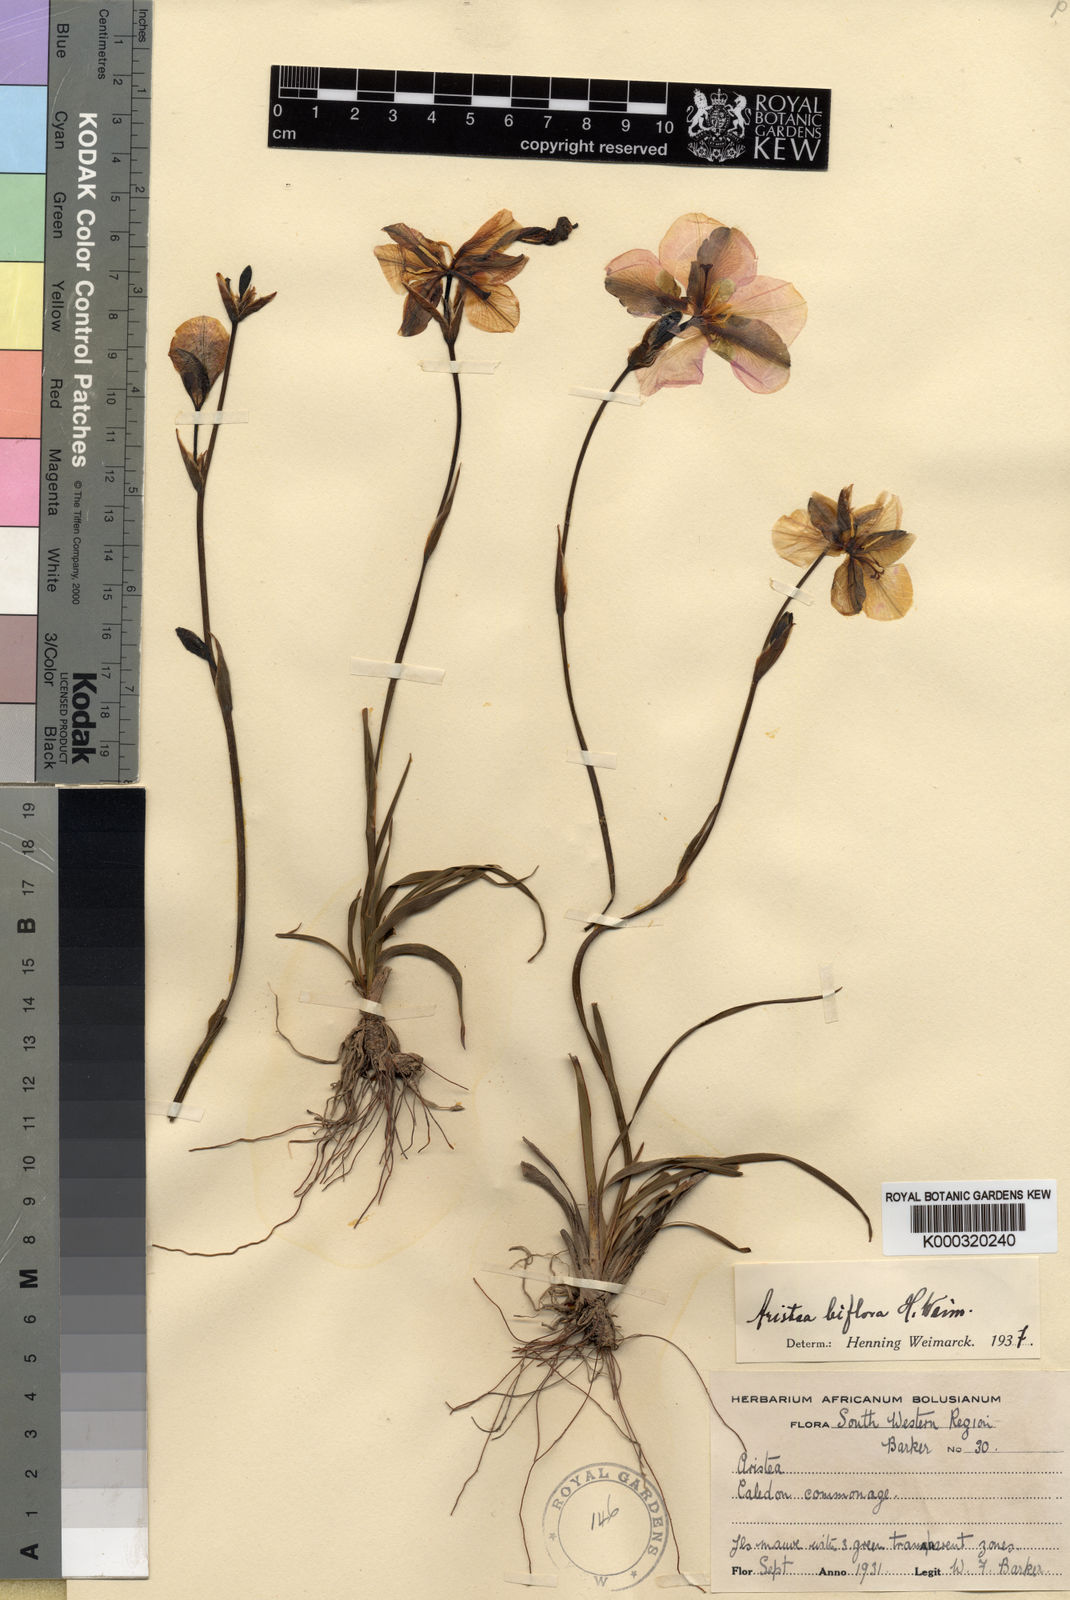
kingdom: Plantae
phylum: Tracheophyta
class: Liliopsida
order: Asparagales
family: Iridaceae
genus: Aristea
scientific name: Aristea biflora
